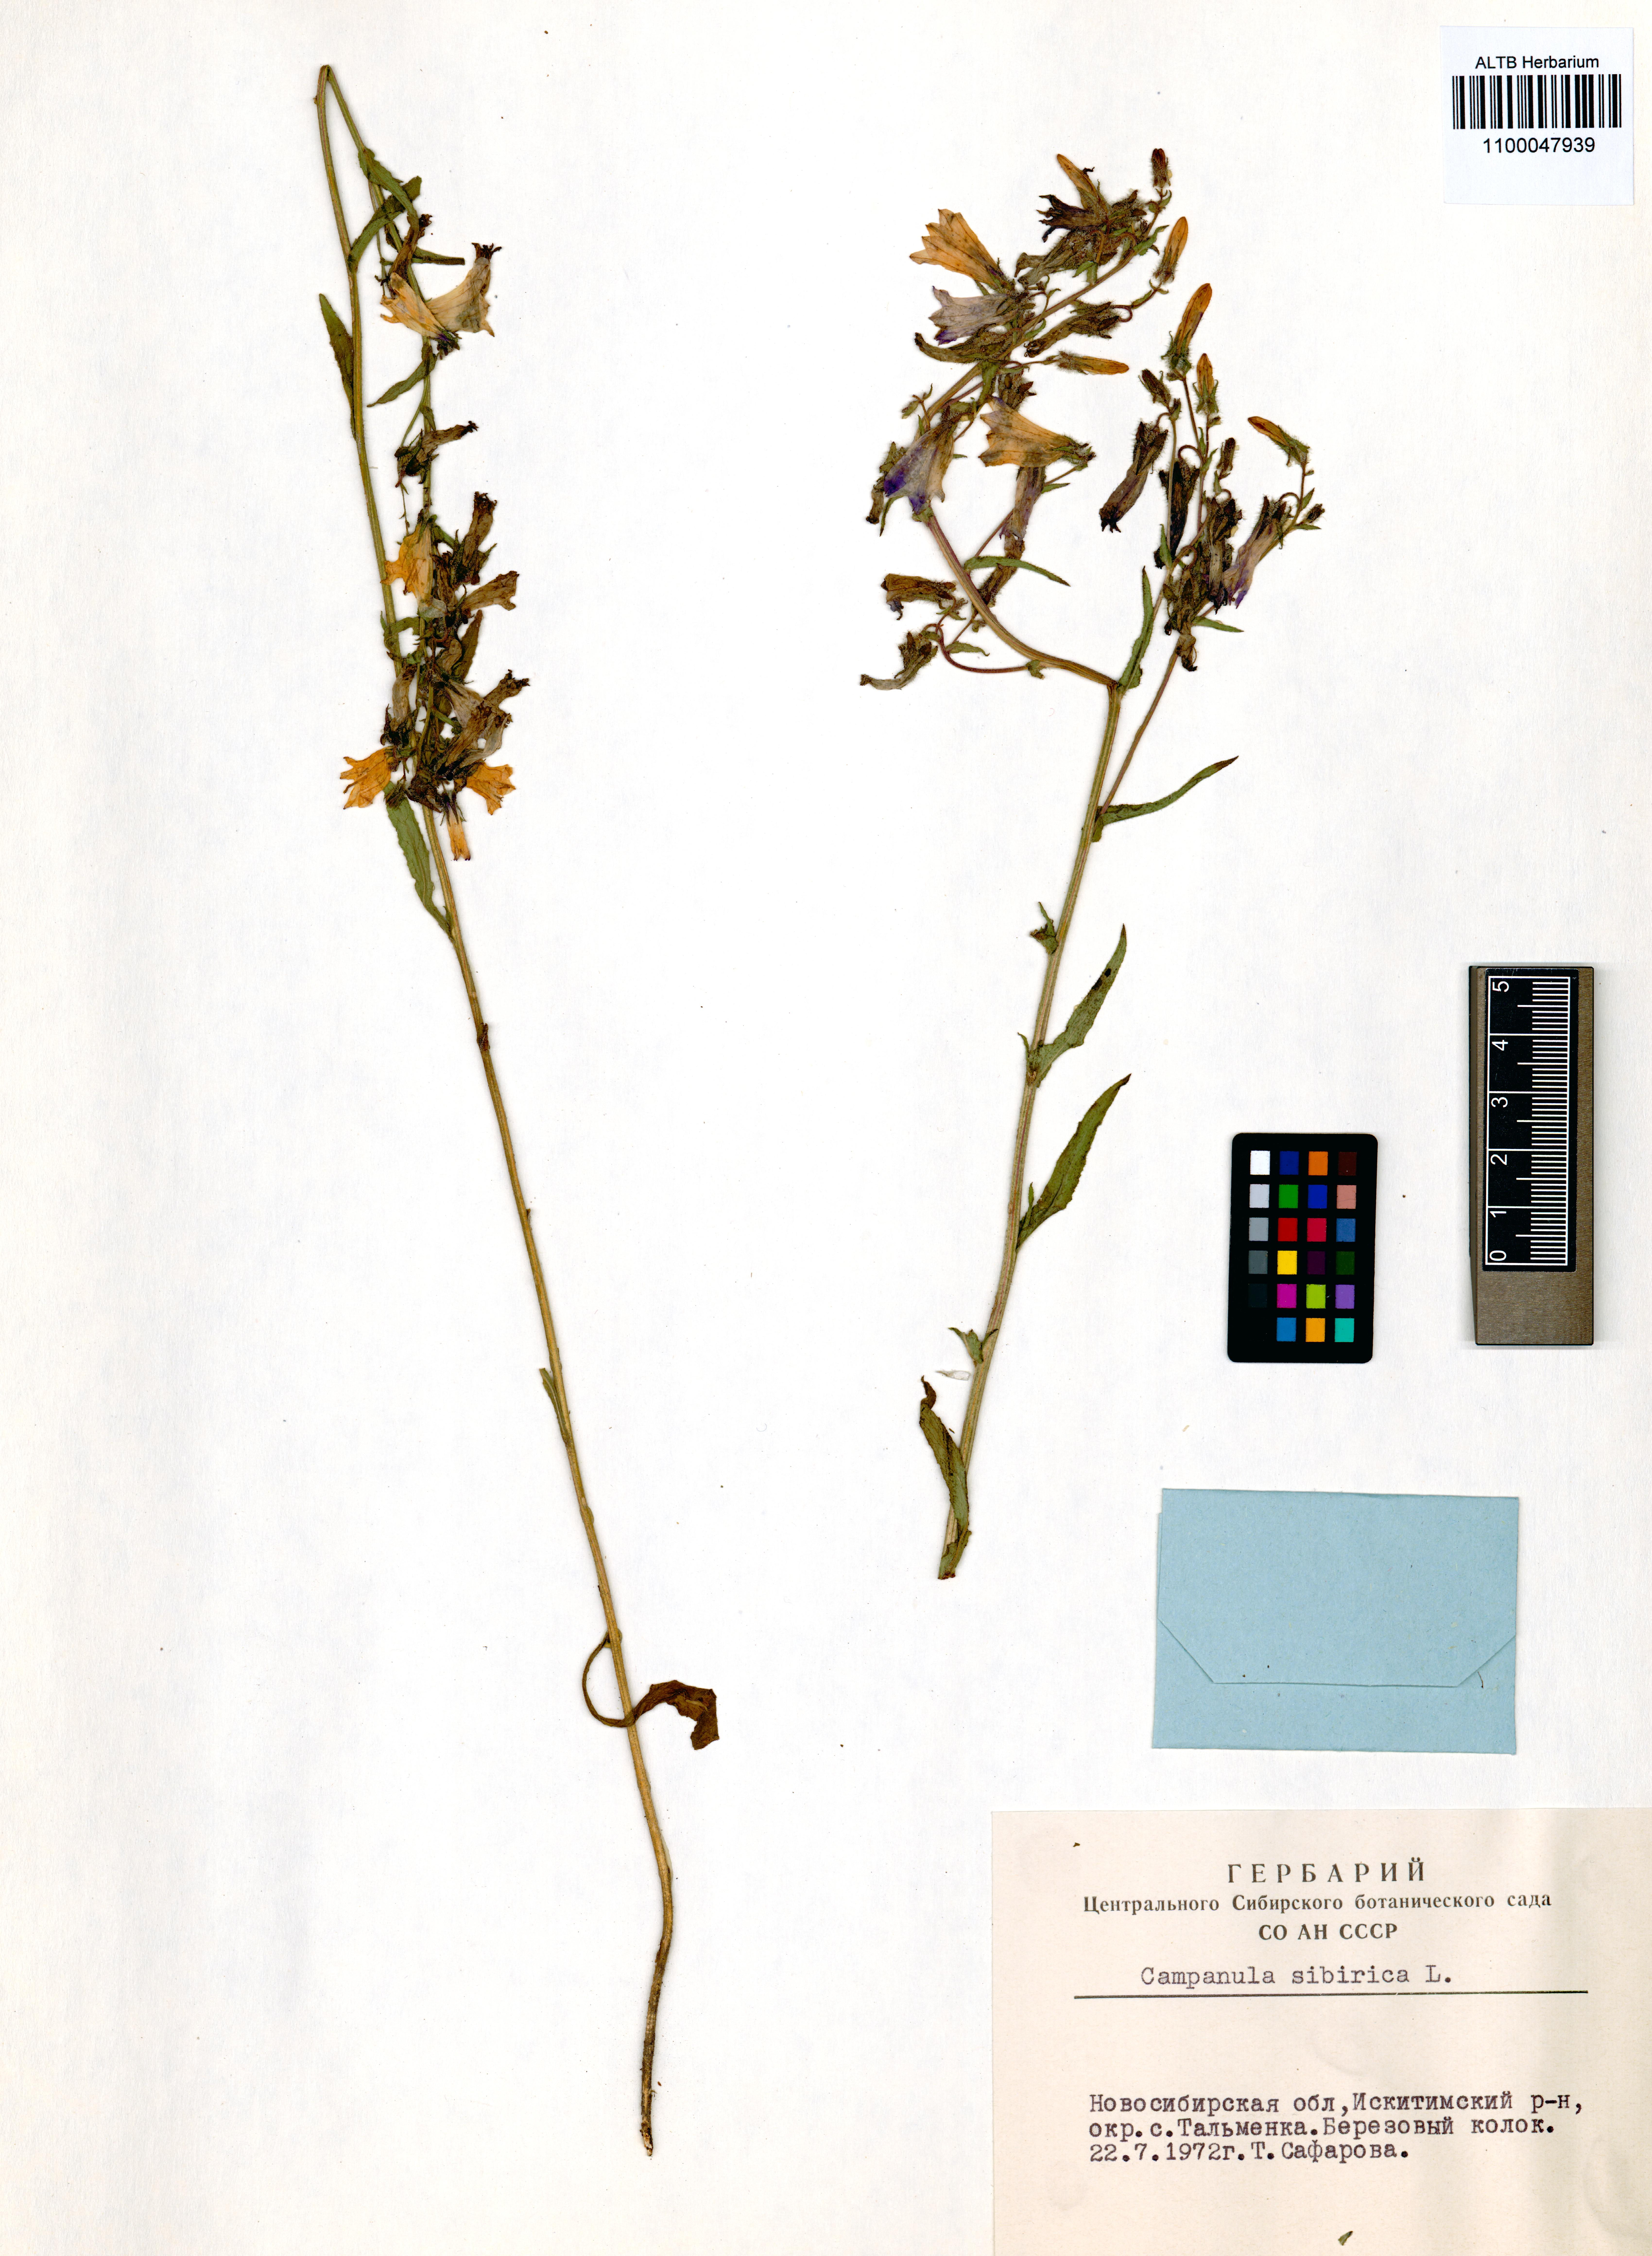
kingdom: Plantae
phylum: Tracheophyta
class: Magnoliopsida
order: Asterales
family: Campanulaceae
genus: Campanula
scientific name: Campanula sibirica
